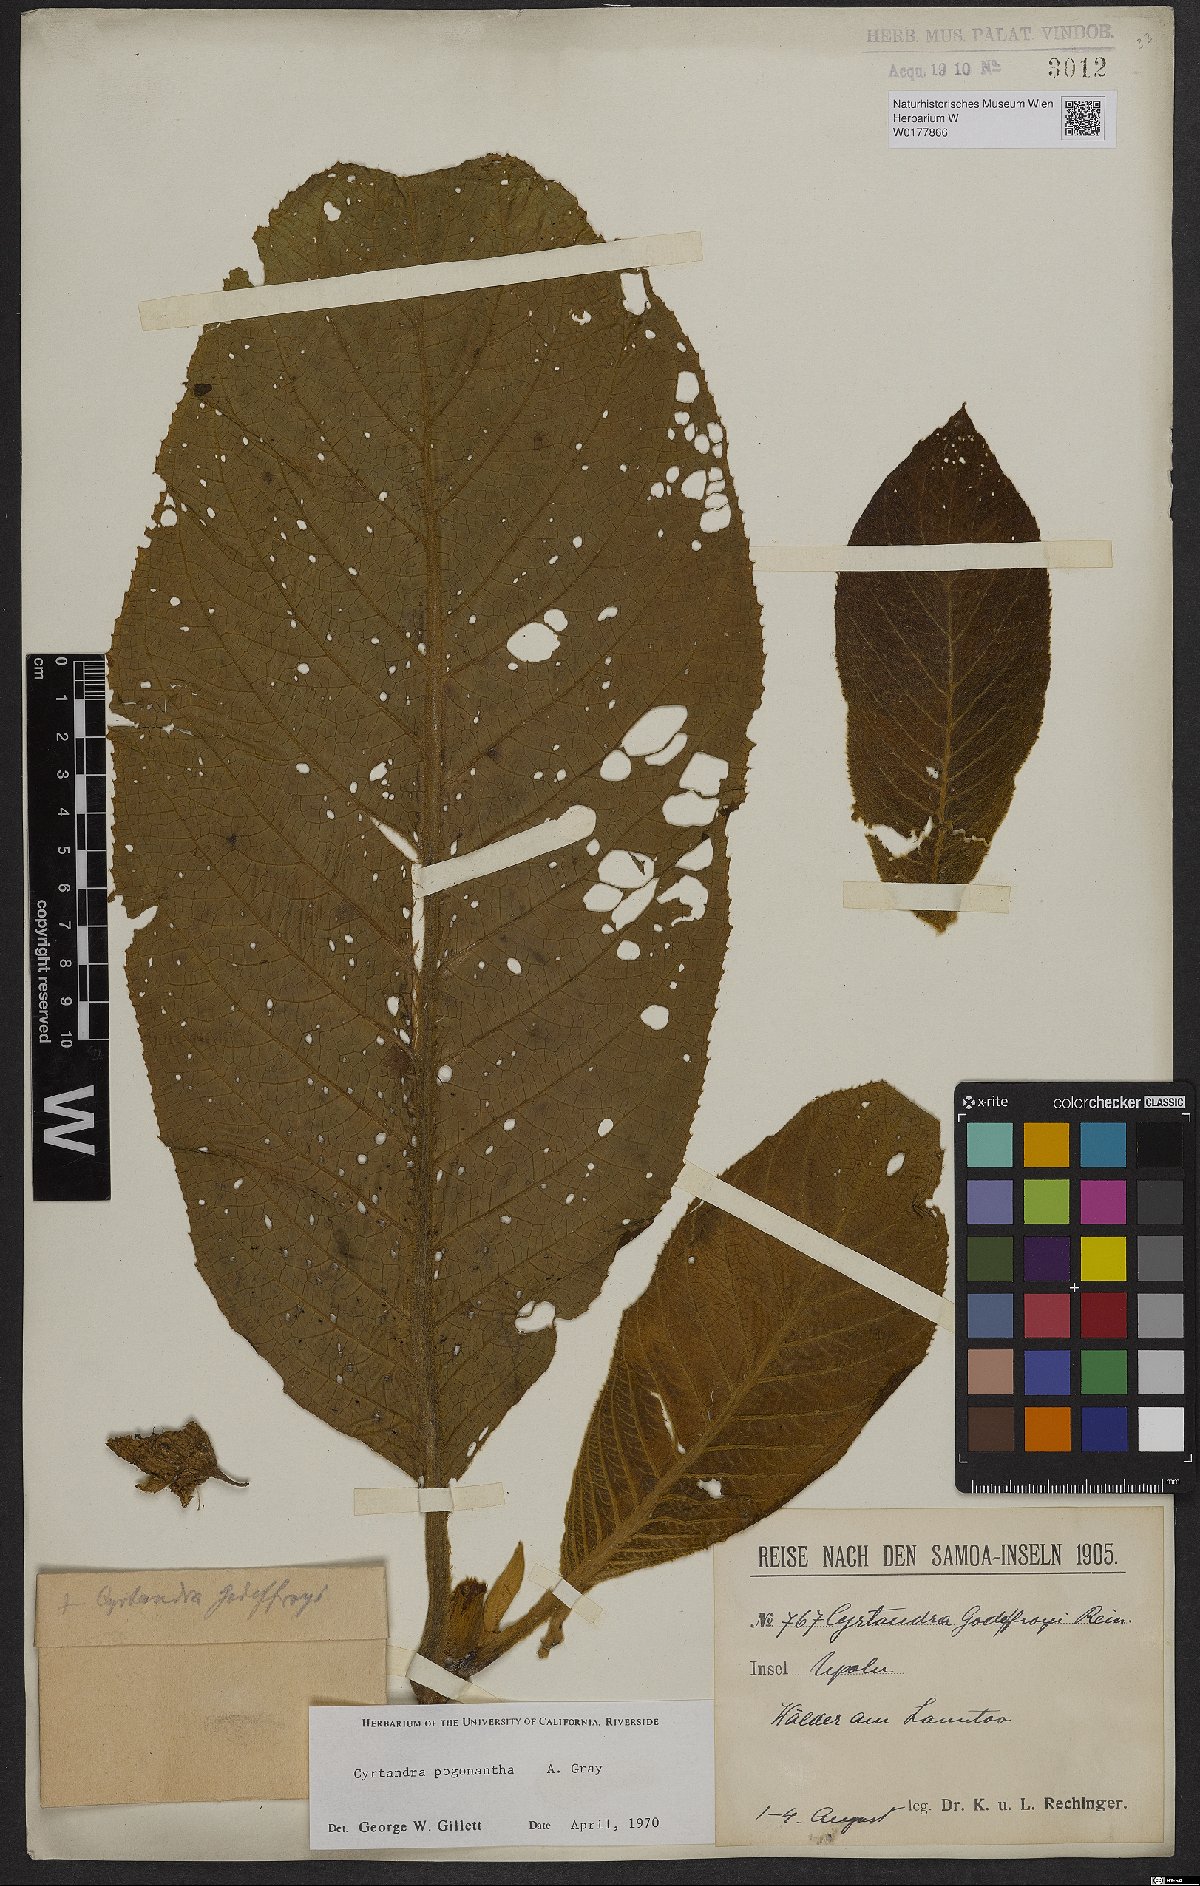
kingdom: Plantae
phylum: Tracheophyta
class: Magnoliopsida
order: Lamiales
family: Gesneriaceae
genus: Cyrtandra
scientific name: Cyrtandra pogonantha
